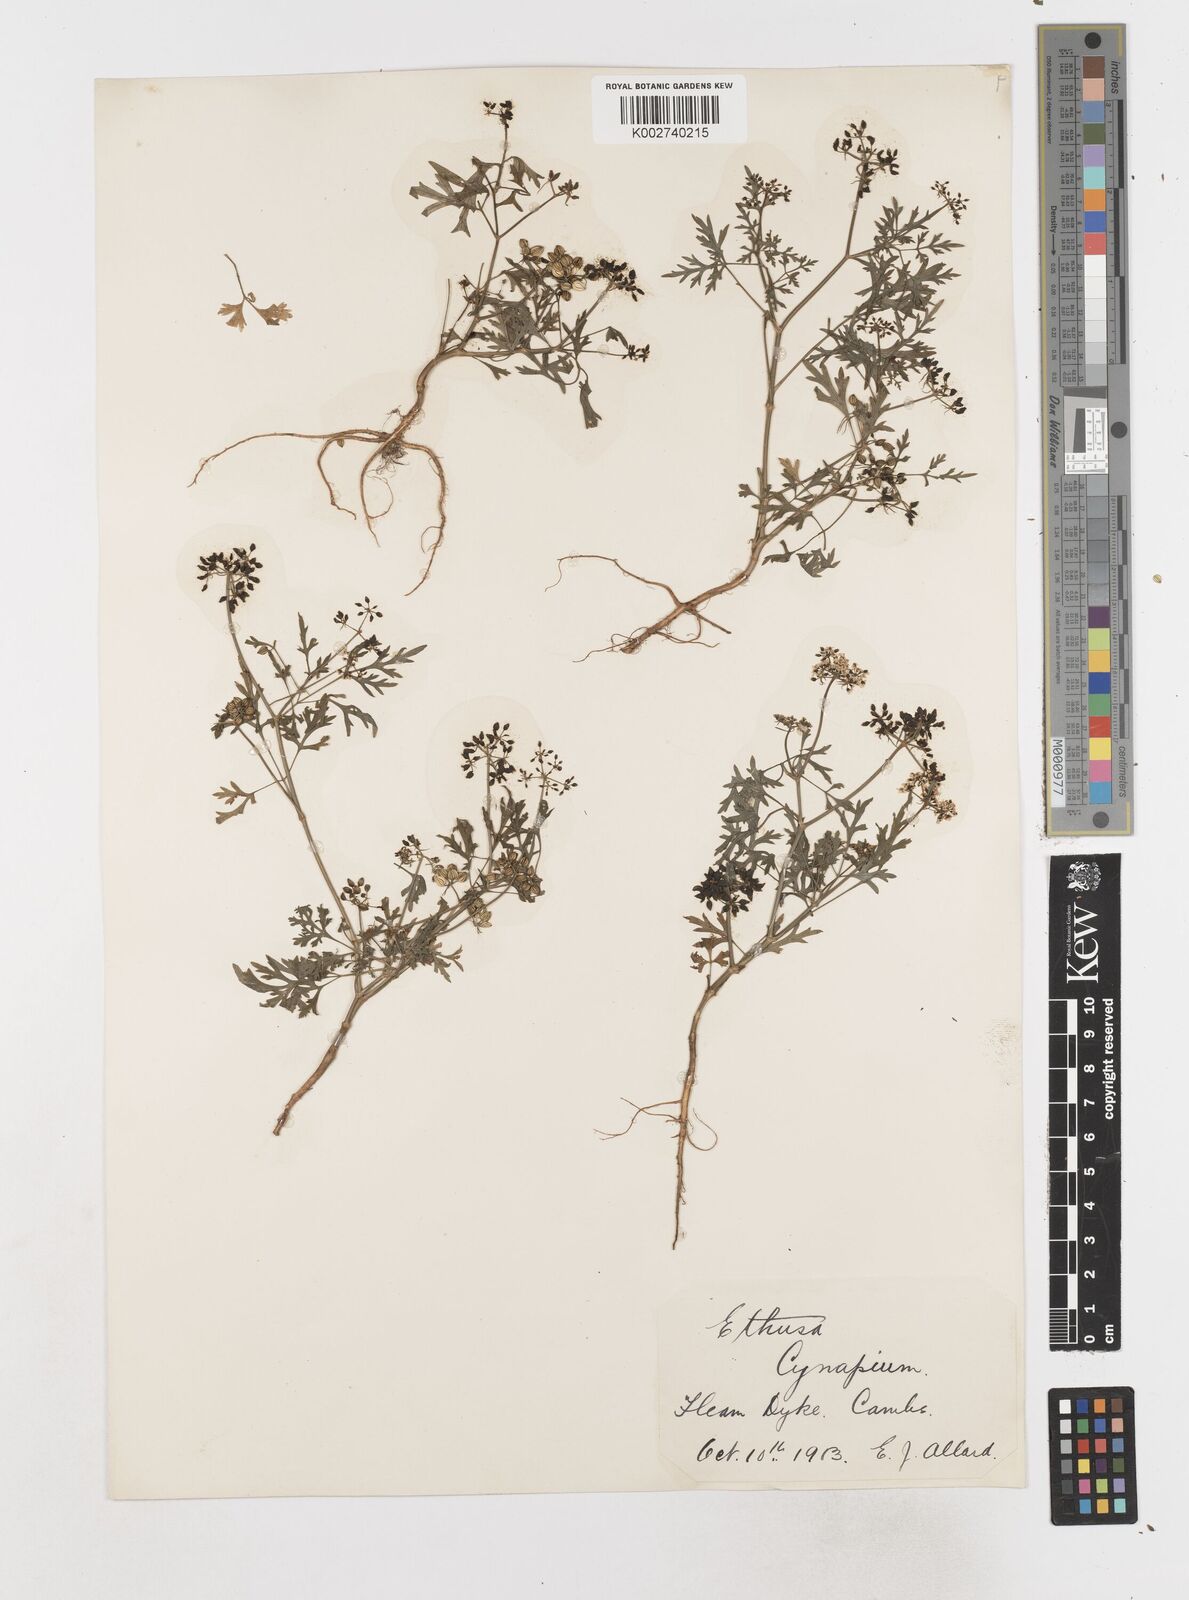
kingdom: Plantae
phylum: Tracheophyta
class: Magnoliopsida
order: Apiales
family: Apiaceae
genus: Aethusa
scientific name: Aethusa cynapium
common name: Fool's parsley
